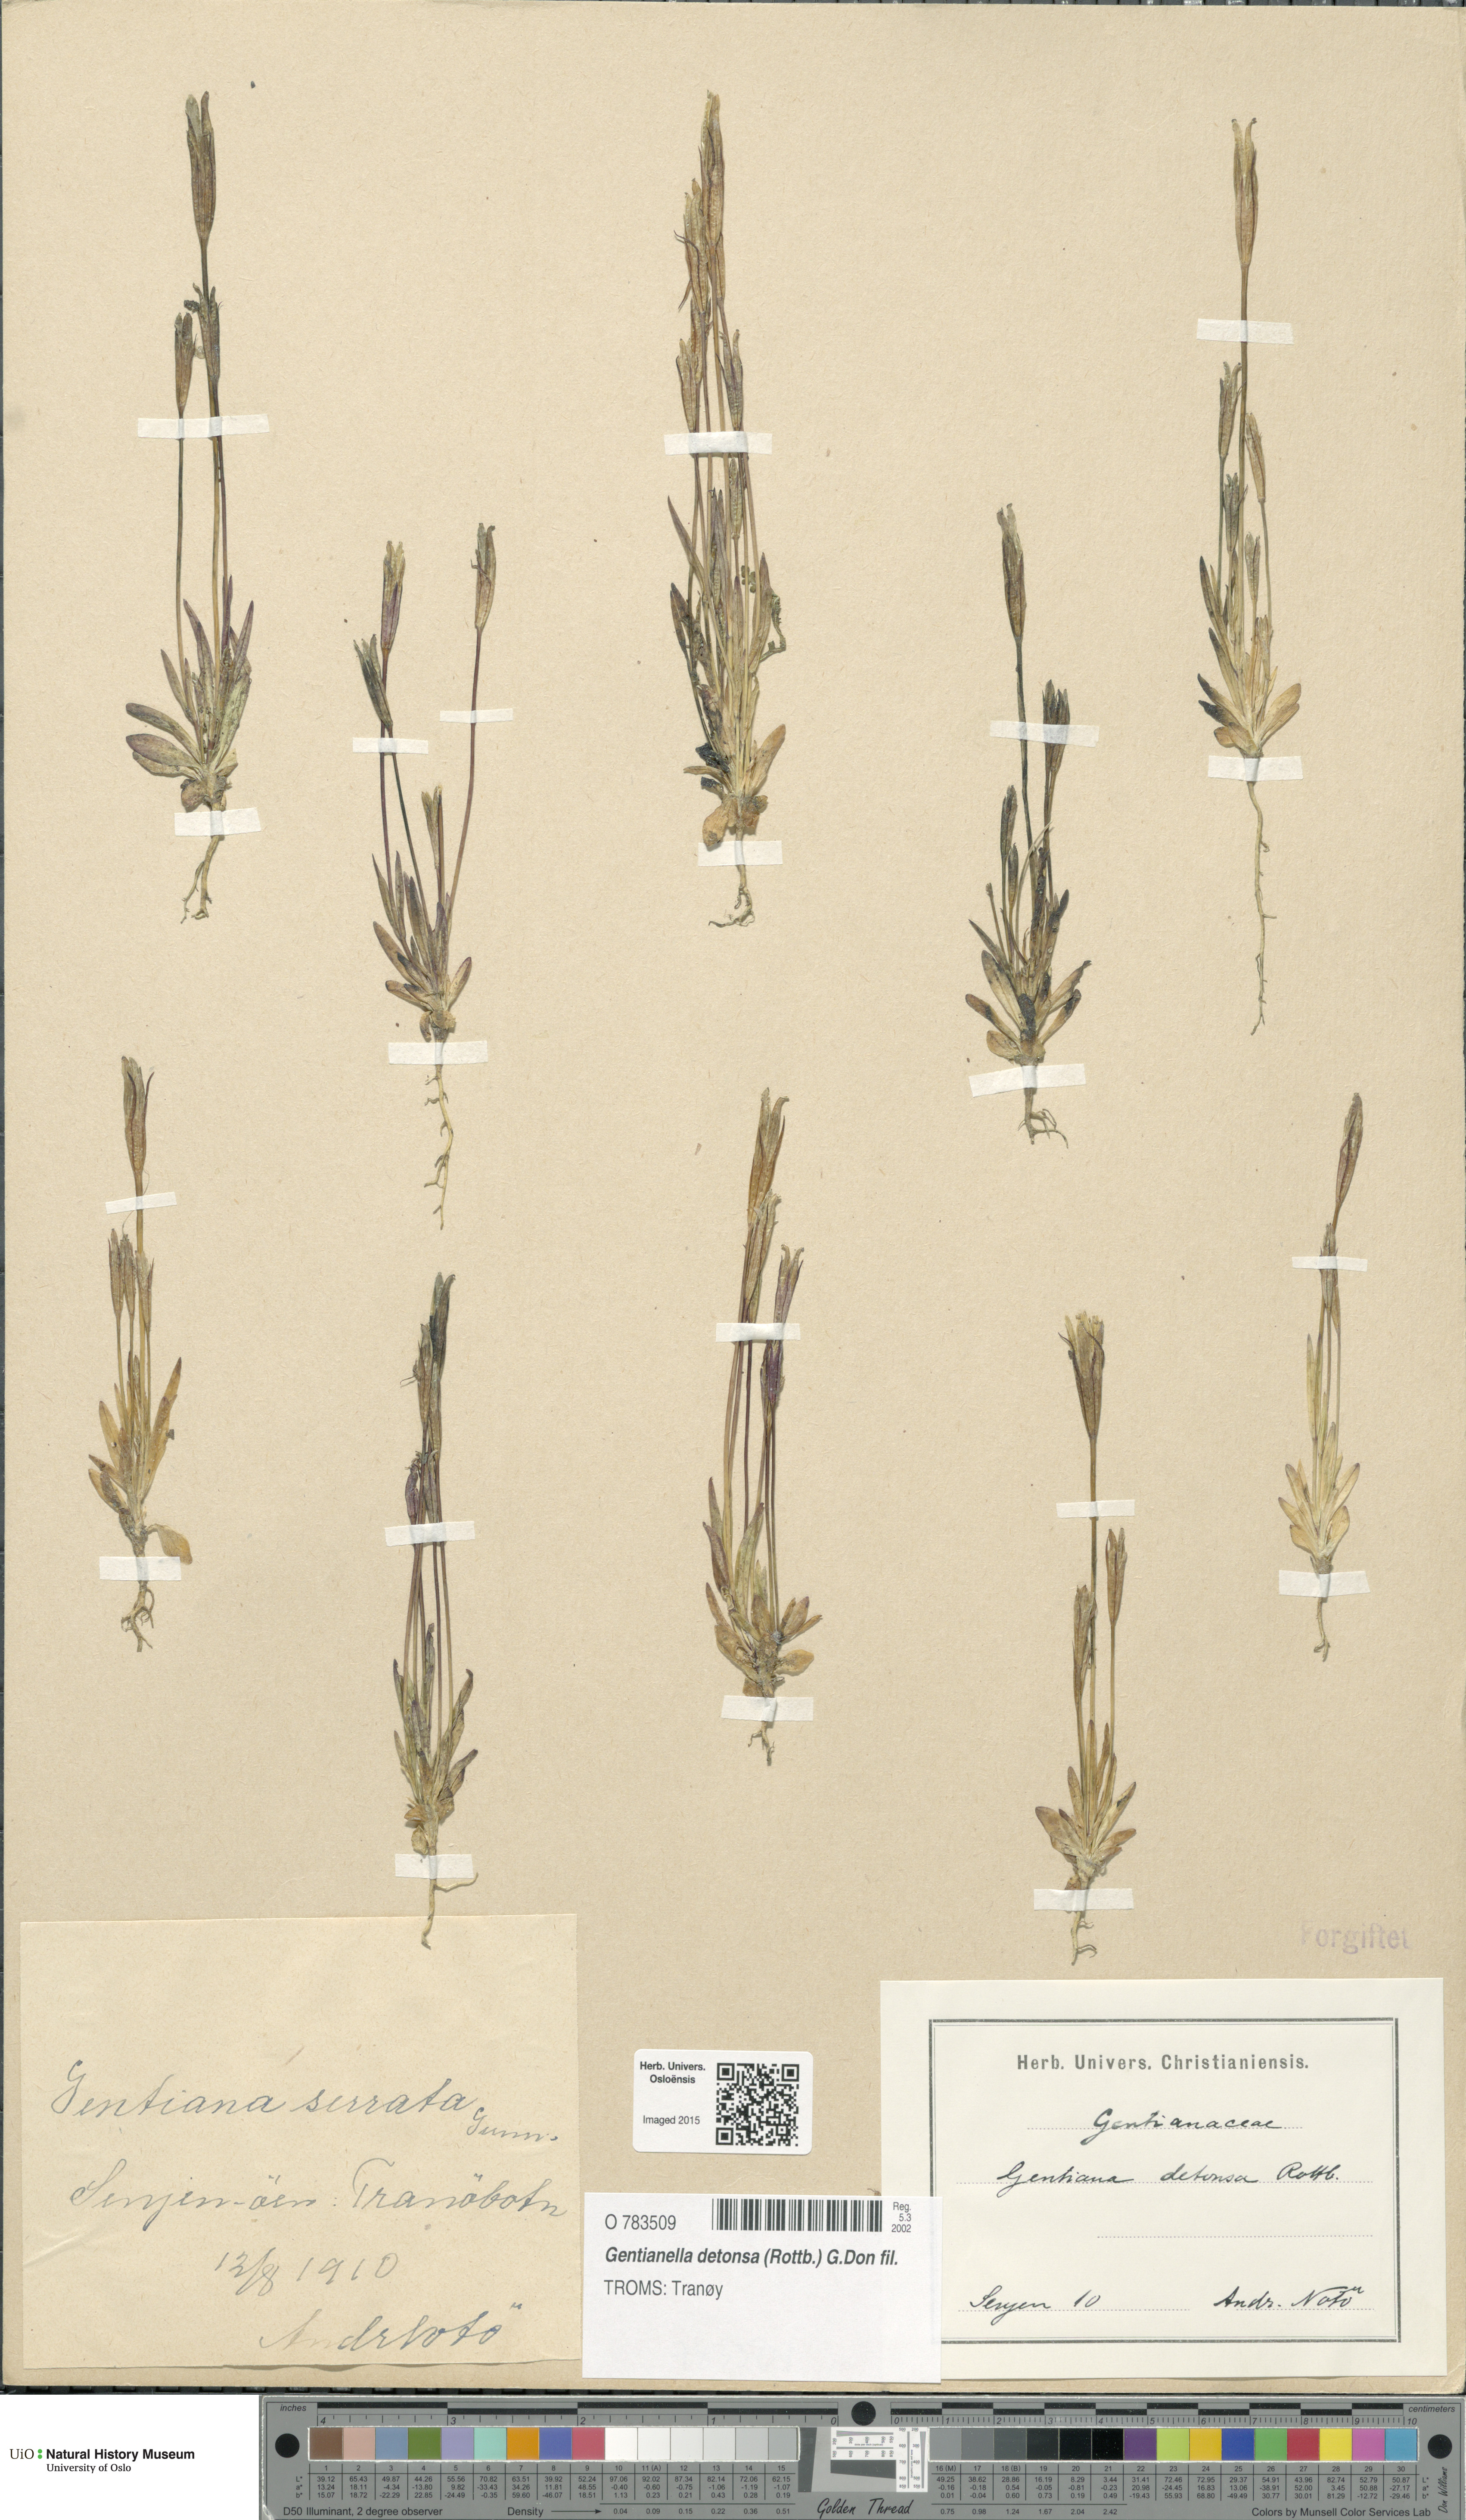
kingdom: Plantae
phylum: Tracheophyta
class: Magnoliopsida
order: Gentianales
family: Gentianaceae
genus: Gentianopsis
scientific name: Gentianopsis detonsa
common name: Fringed-gentian
